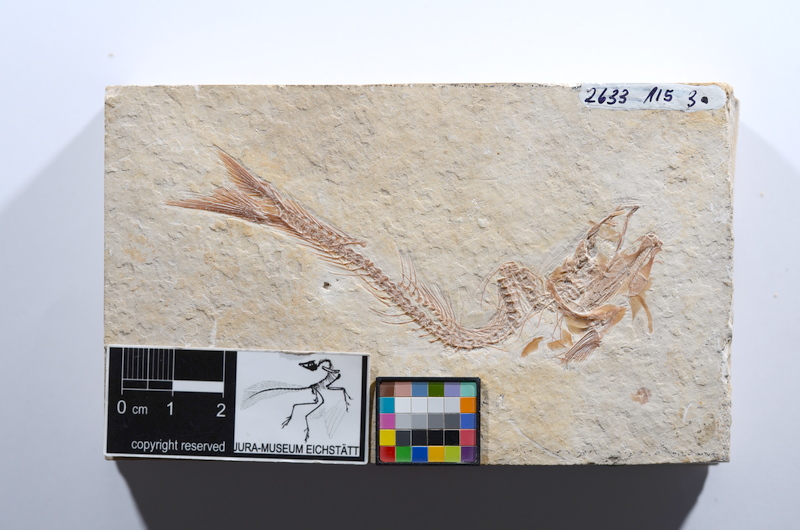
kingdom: Animalia
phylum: Chordata
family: Ascalaboidae
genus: Tharsis
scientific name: Tharsis dubius
